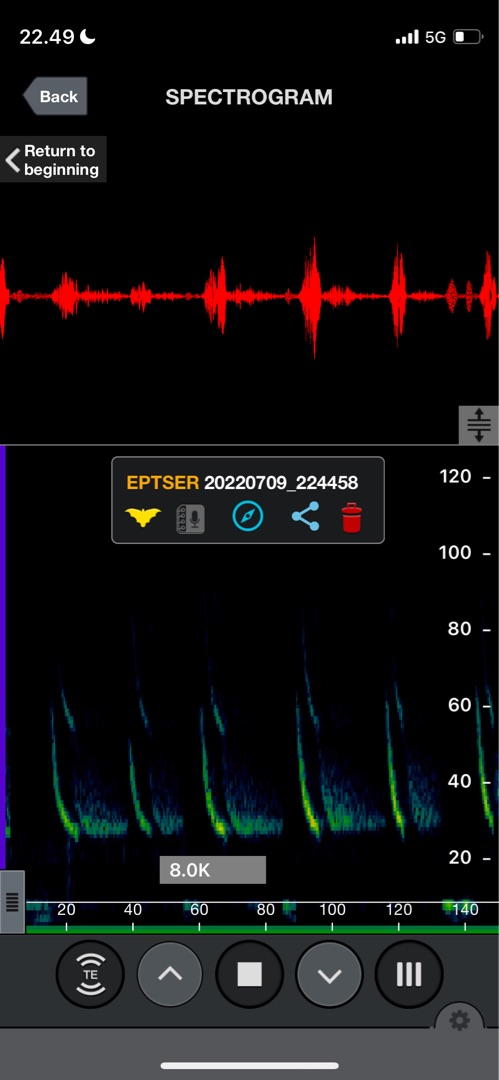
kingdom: Animalia
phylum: Chordata
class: Mammalia
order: Chiroptera
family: Vespertilionidae
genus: Eptesicus
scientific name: Eptesicus serotinus
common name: Sydflagermus
